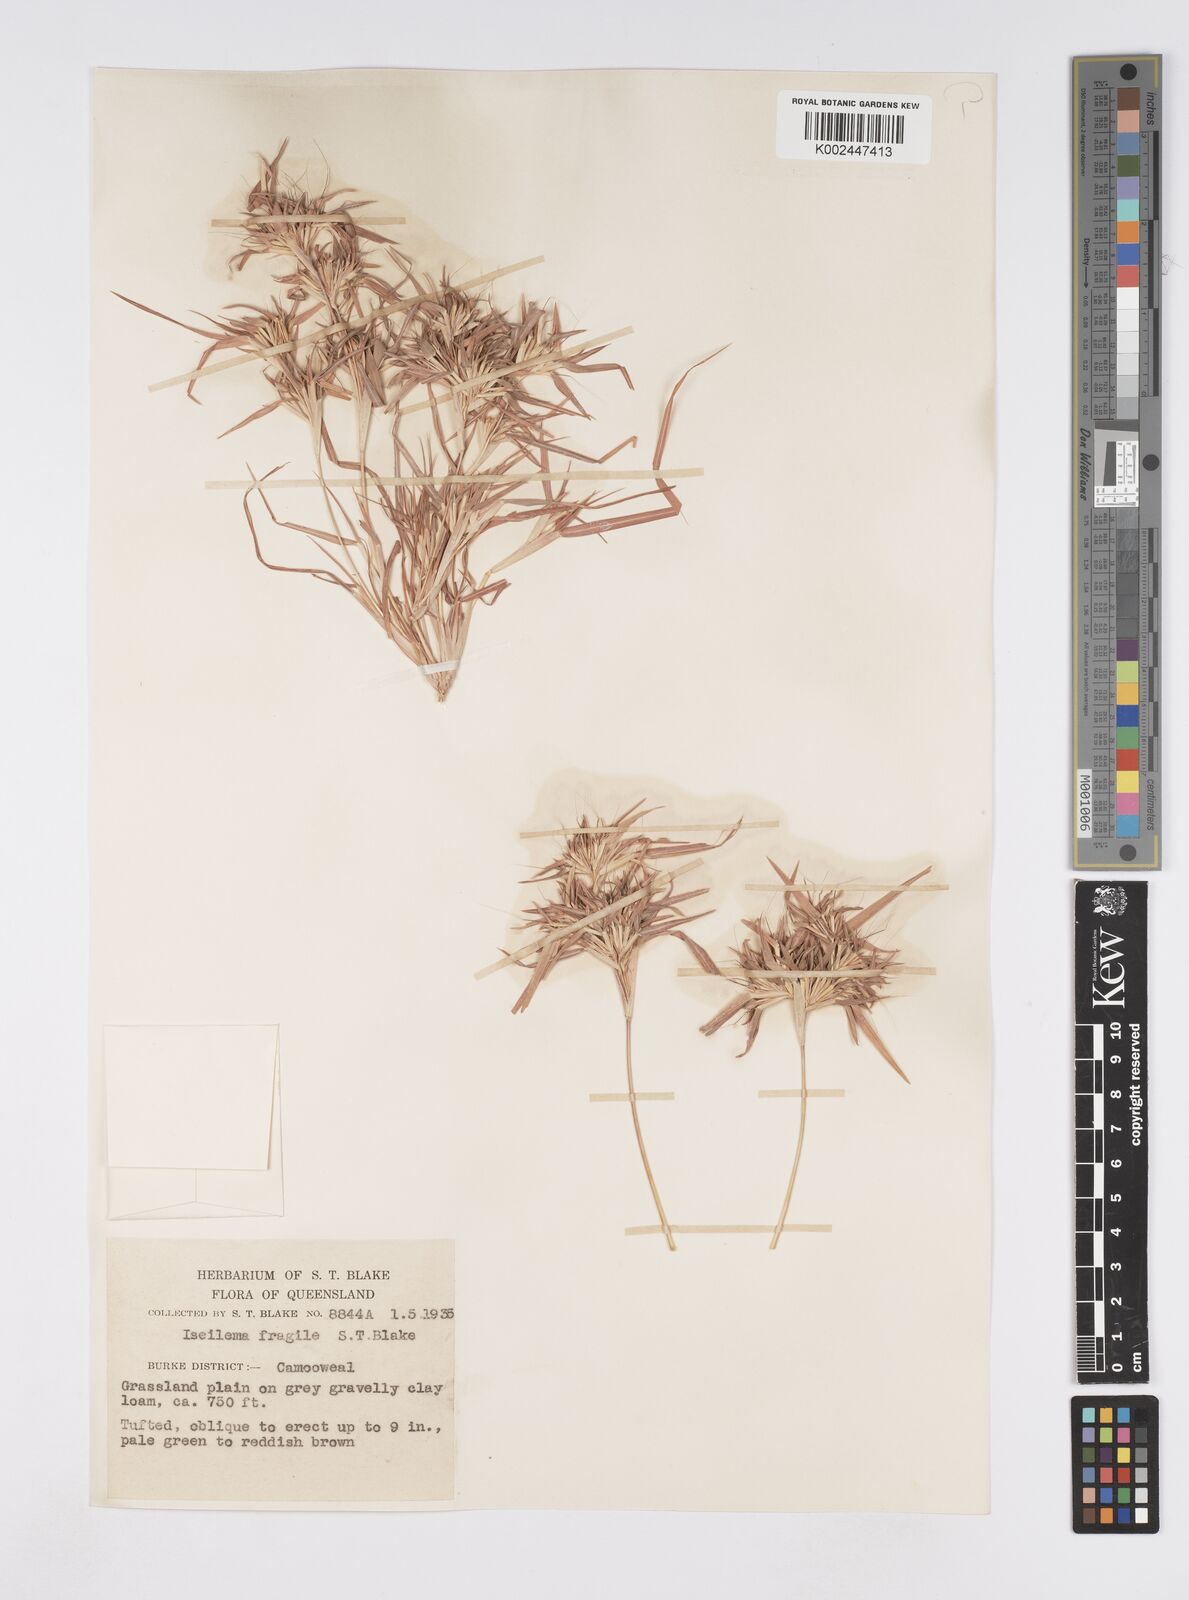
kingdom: Plantae
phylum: Tracheophyta
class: Liliopsida
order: Poales
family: Poaceae
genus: Iseilema
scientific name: Iseilema fragile
